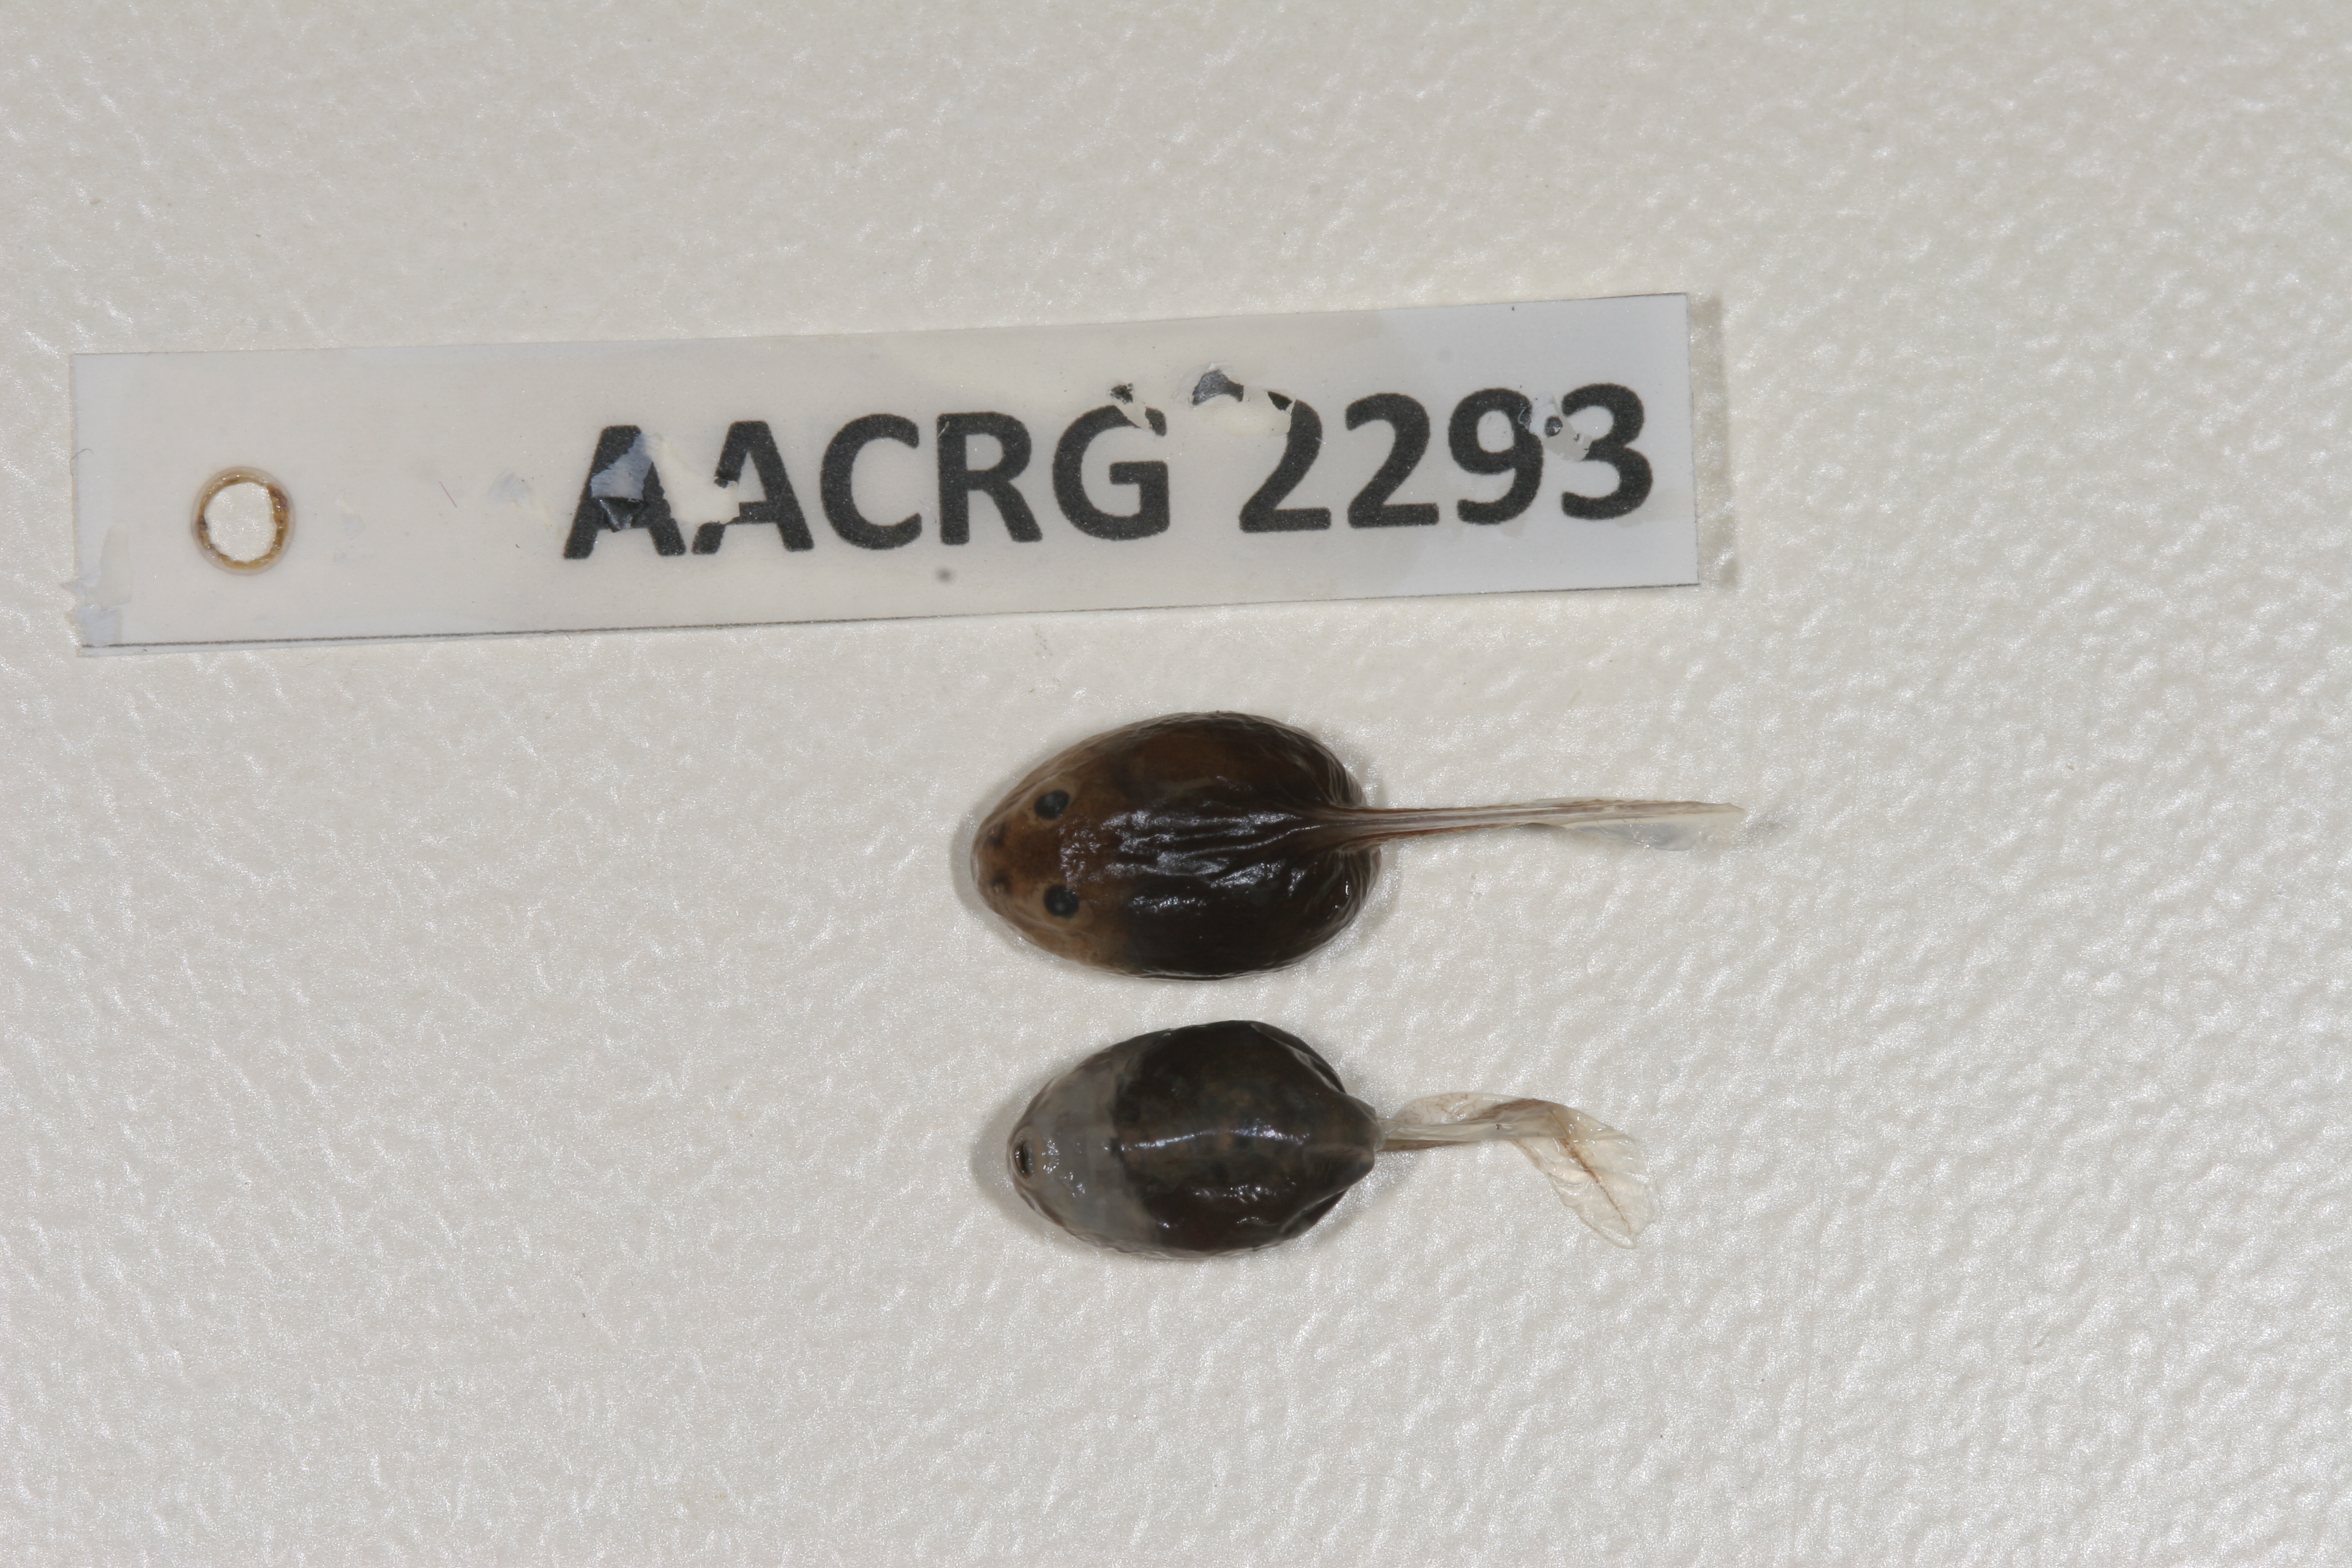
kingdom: Animalia
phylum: Chordata
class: Amphibia
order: Anura
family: Pyxicephalidae
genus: Tomopterna
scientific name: Tomopterna delalandii
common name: Delalande's burrowing bullfrog
